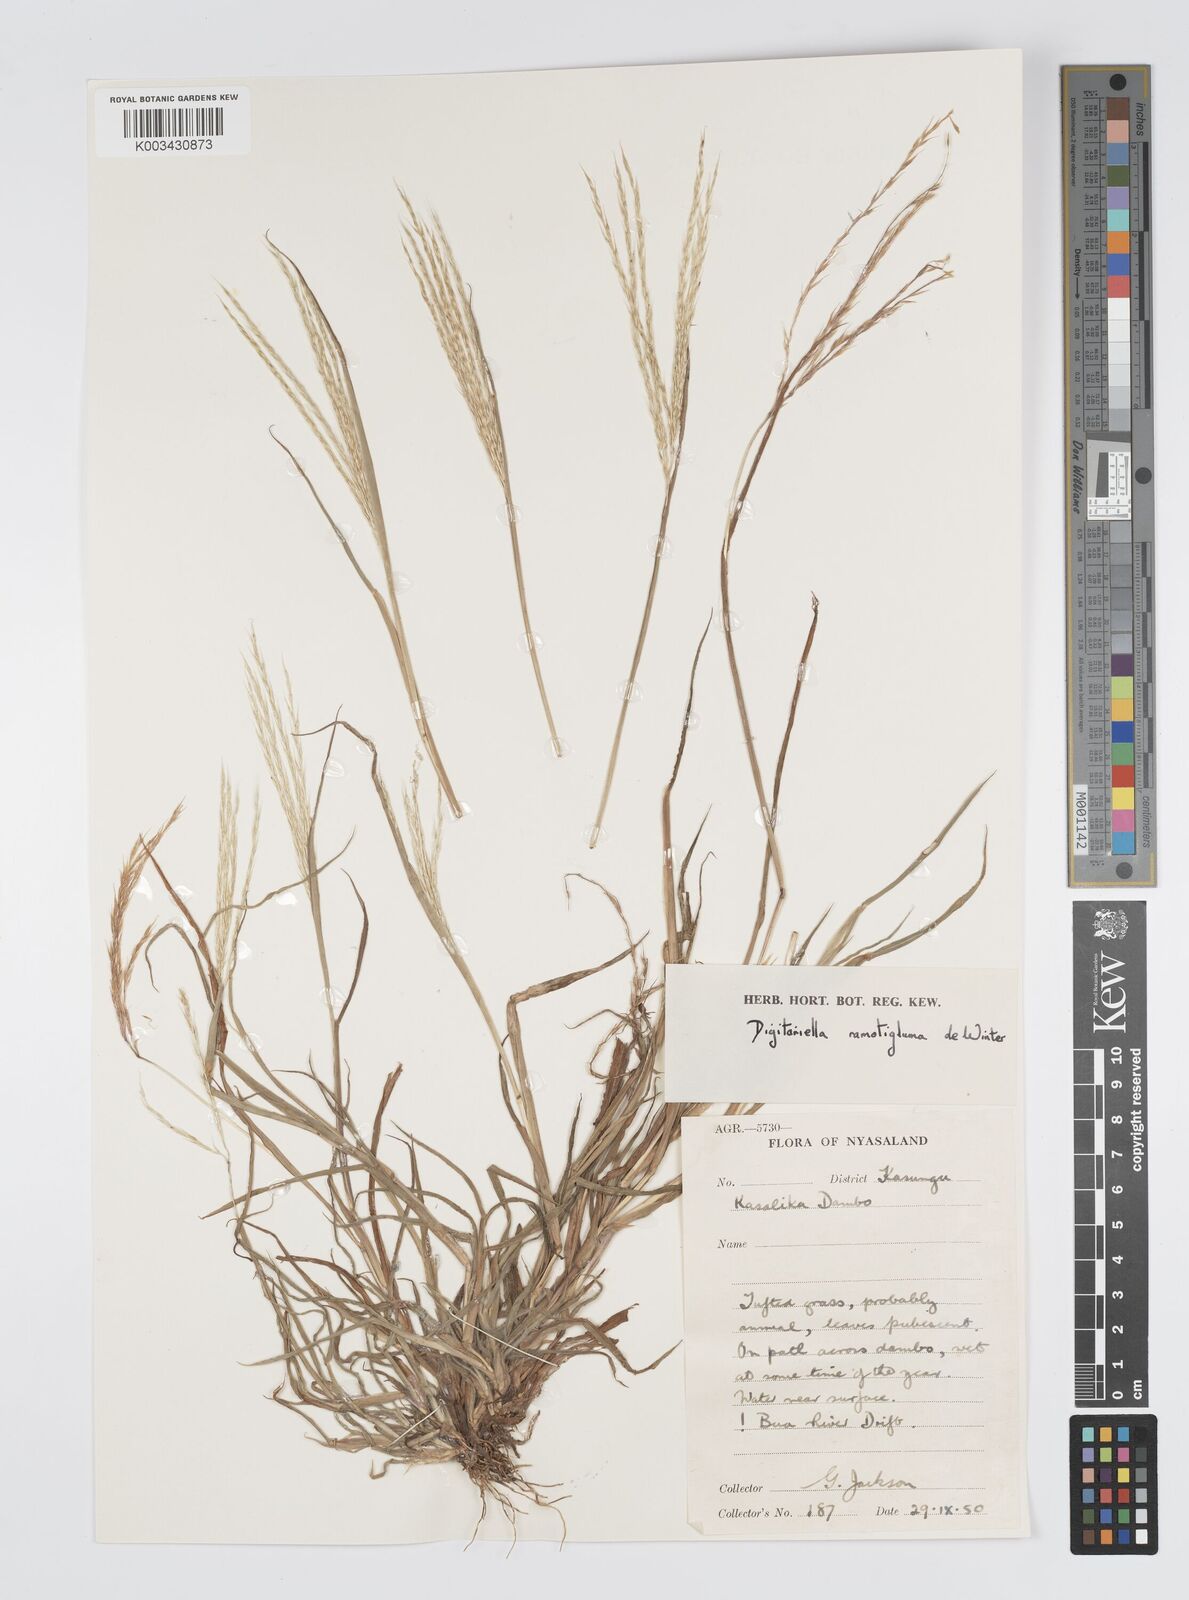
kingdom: Plantae
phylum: Tracheophyta
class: Liliopsida
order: Poales
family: Poaceae
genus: Digitaria
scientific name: Digitaria remotigluma
